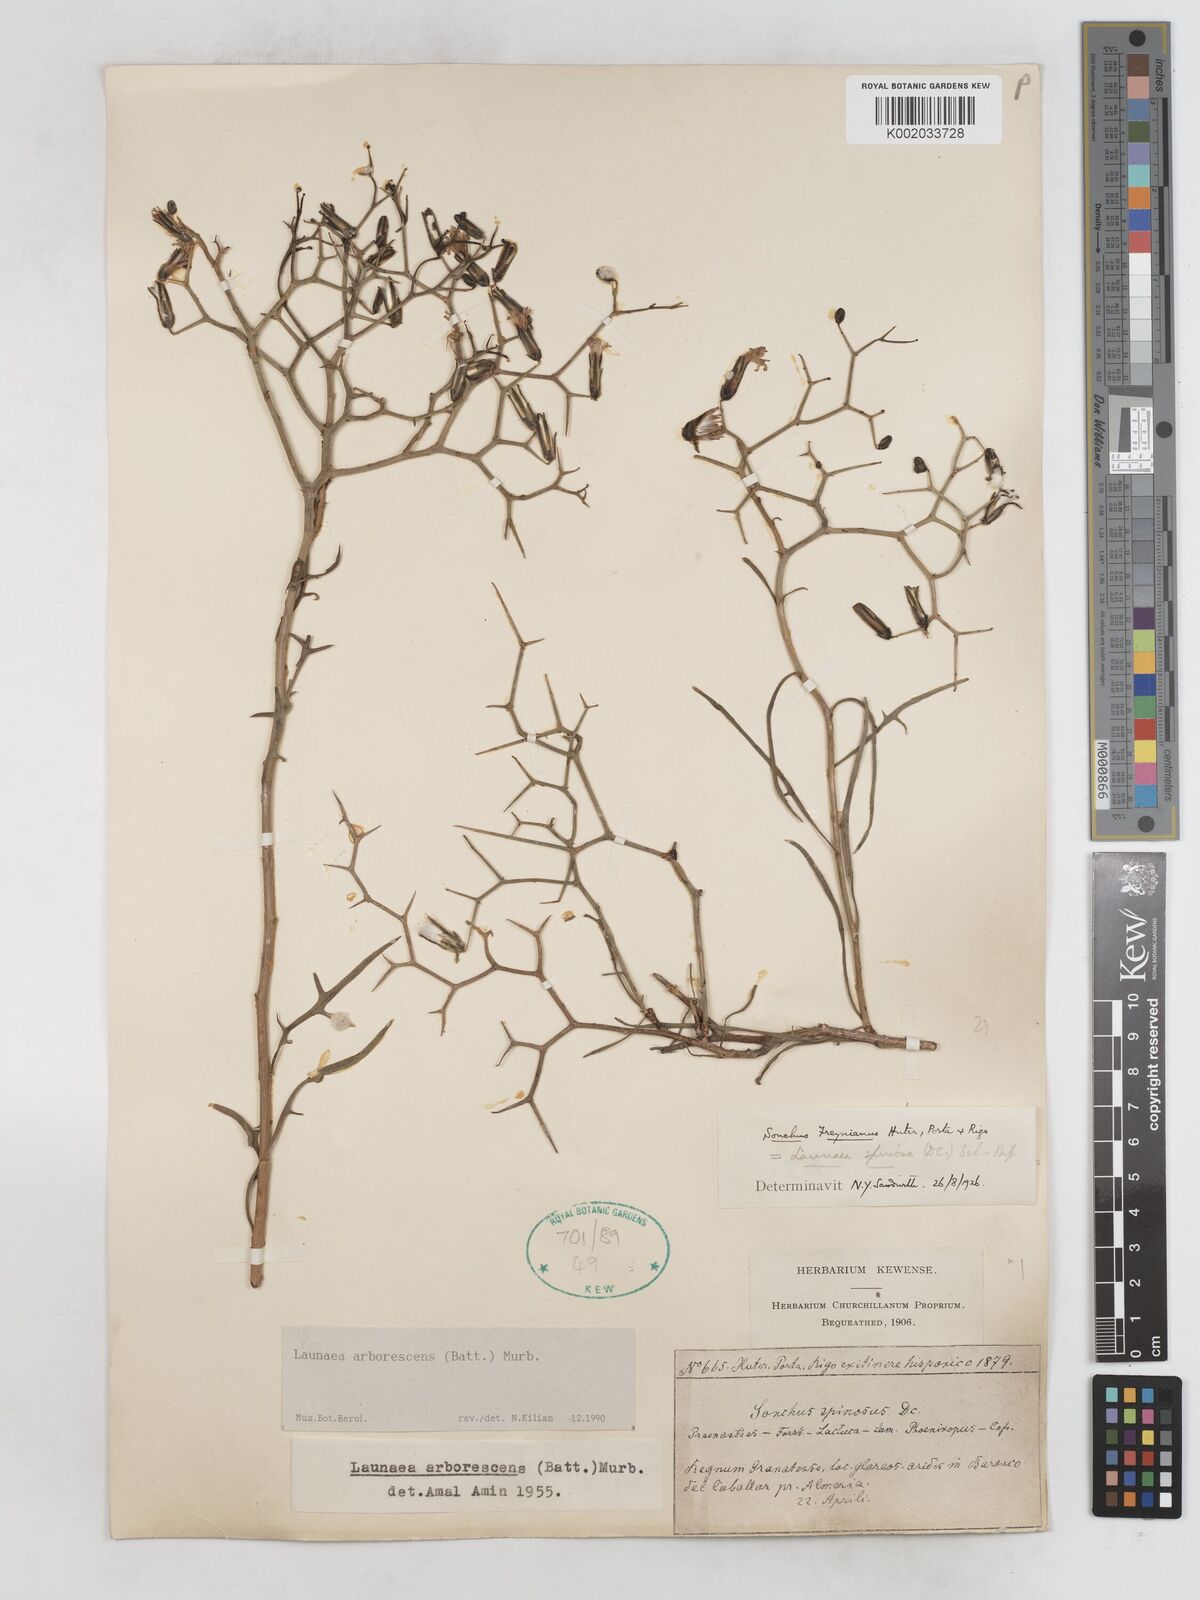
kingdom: Plantae
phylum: Tracheophyta
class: Magnoliopsida
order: Asterales
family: Asteraceae
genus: Launaea
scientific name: Launaea arborescens
